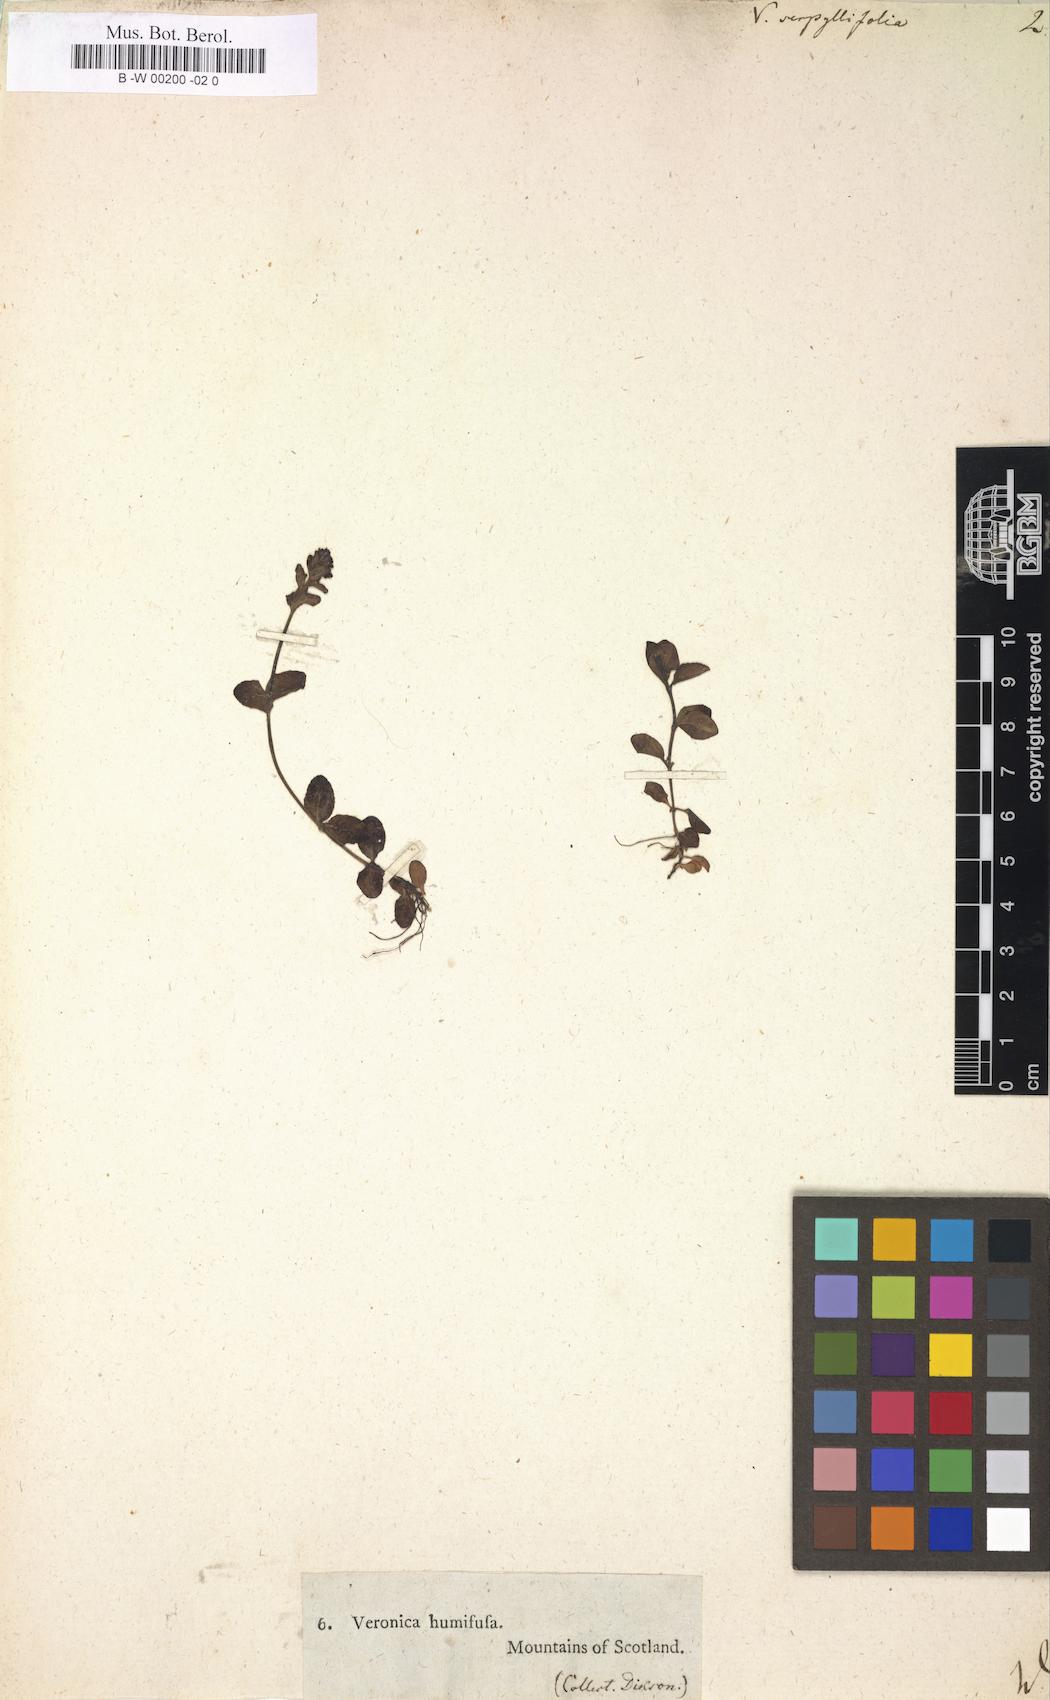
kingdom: Plantae
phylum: Tracheophyta
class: Magnoliopsida
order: Lamiales
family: Plantaginaceae
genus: Veronica
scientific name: Veronica serpyllifolia
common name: Thyme-leaved speedwell
